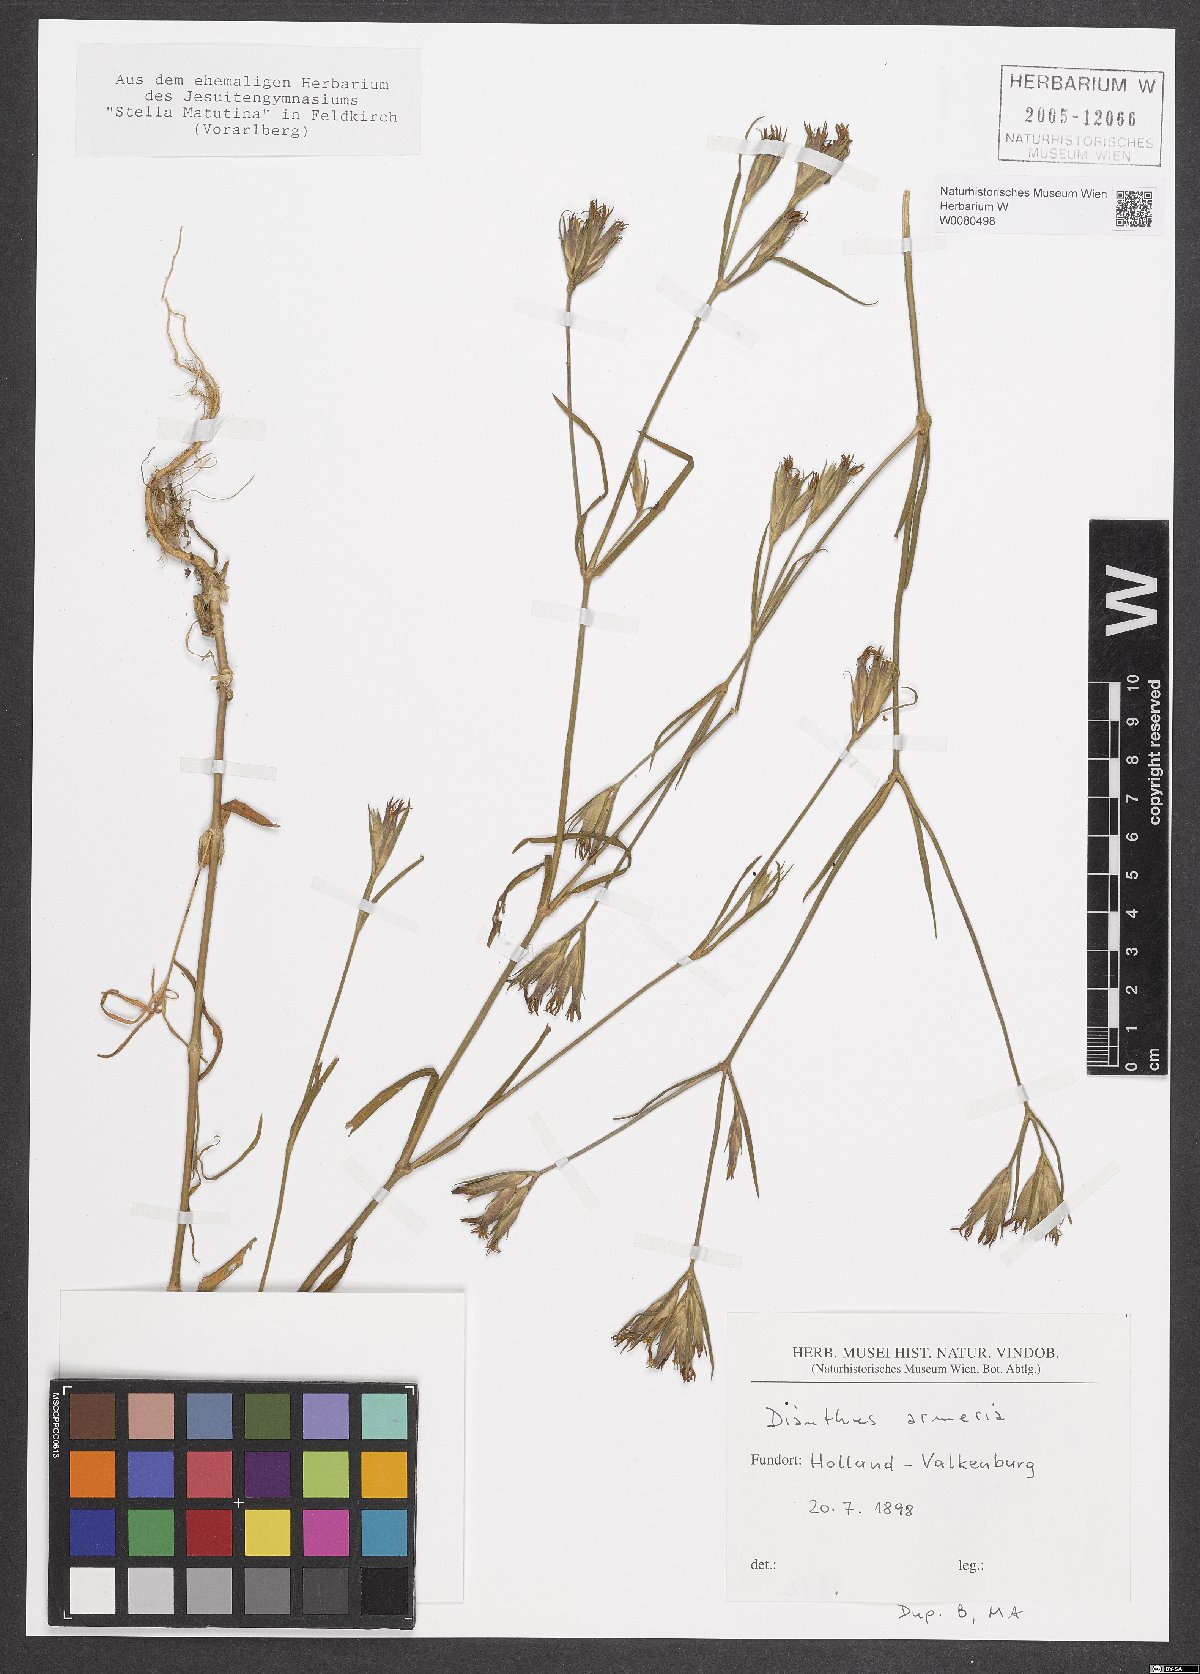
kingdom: Plantae
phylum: Tracheophyta
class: Magnoliopsida
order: Caryophyllales
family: Caryophyllaceae
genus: Dianthus
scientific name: Dianthus armeria
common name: Deptford pink
